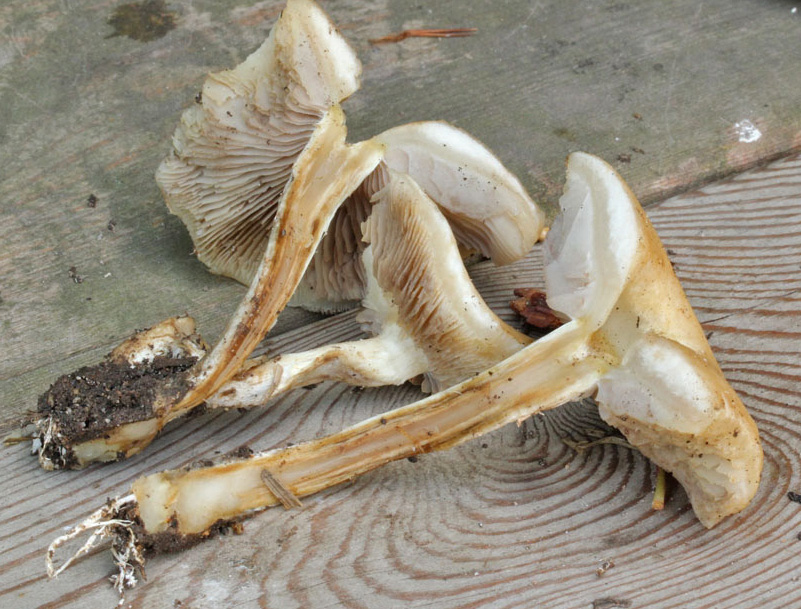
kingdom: Fungi
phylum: Basidiomycota
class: Agaricomycetes
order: Agaricales
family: Strophariaceae
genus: Agrocybe
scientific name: Agrocybe praecox
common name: tidlig agerhat
